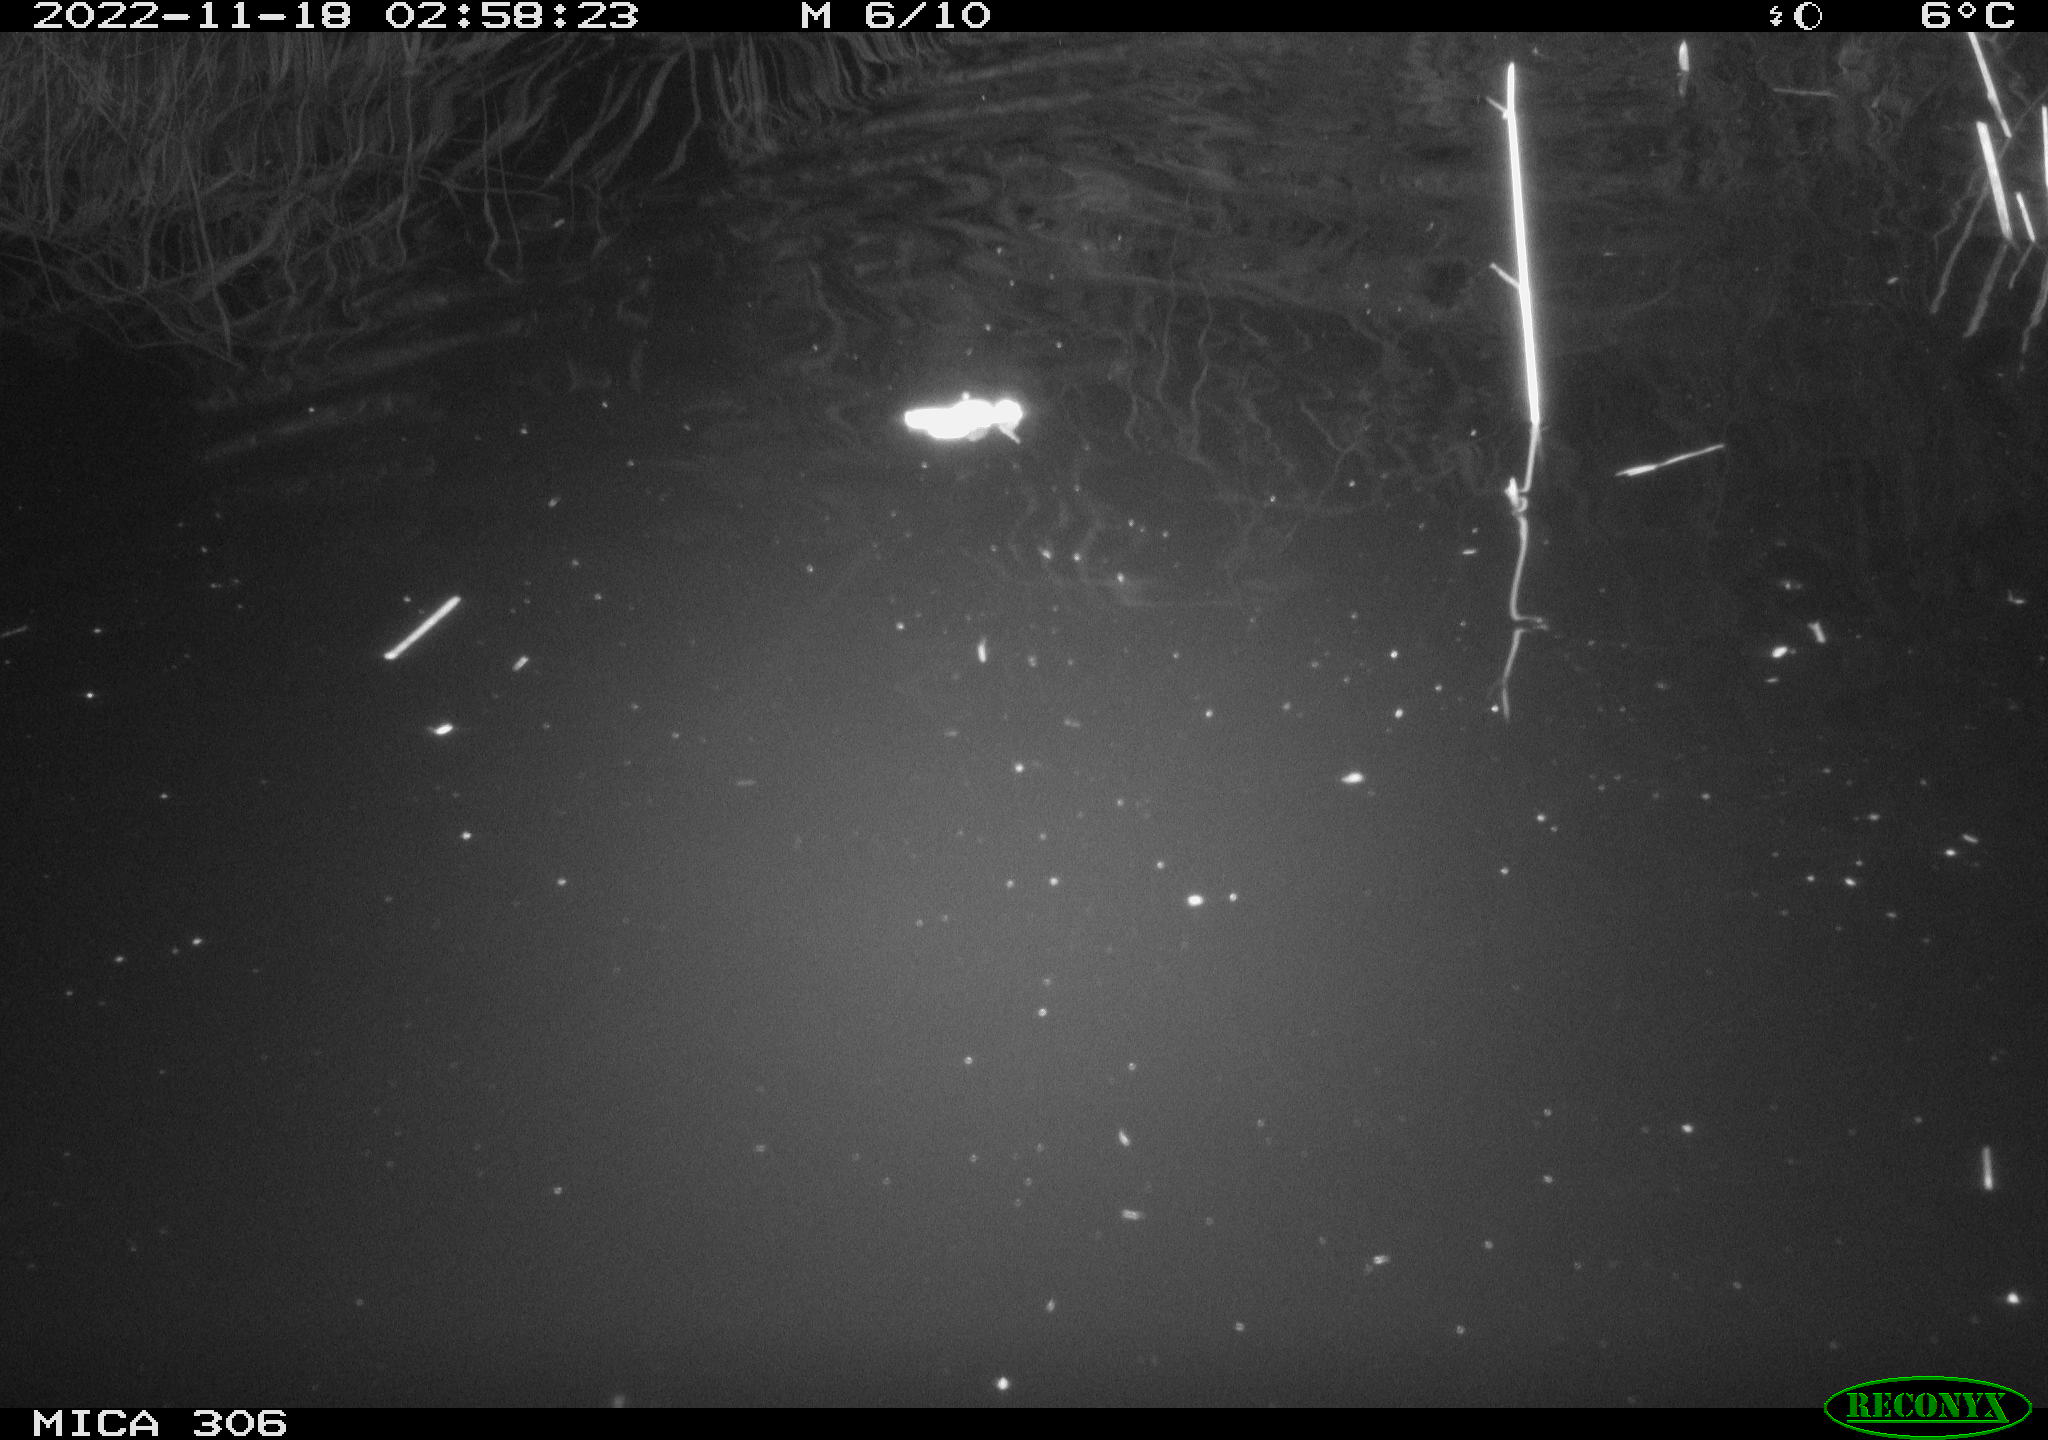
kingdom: Animalia
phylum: Chordata
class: Mammalia
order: Rodentia
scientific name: Rodentia
